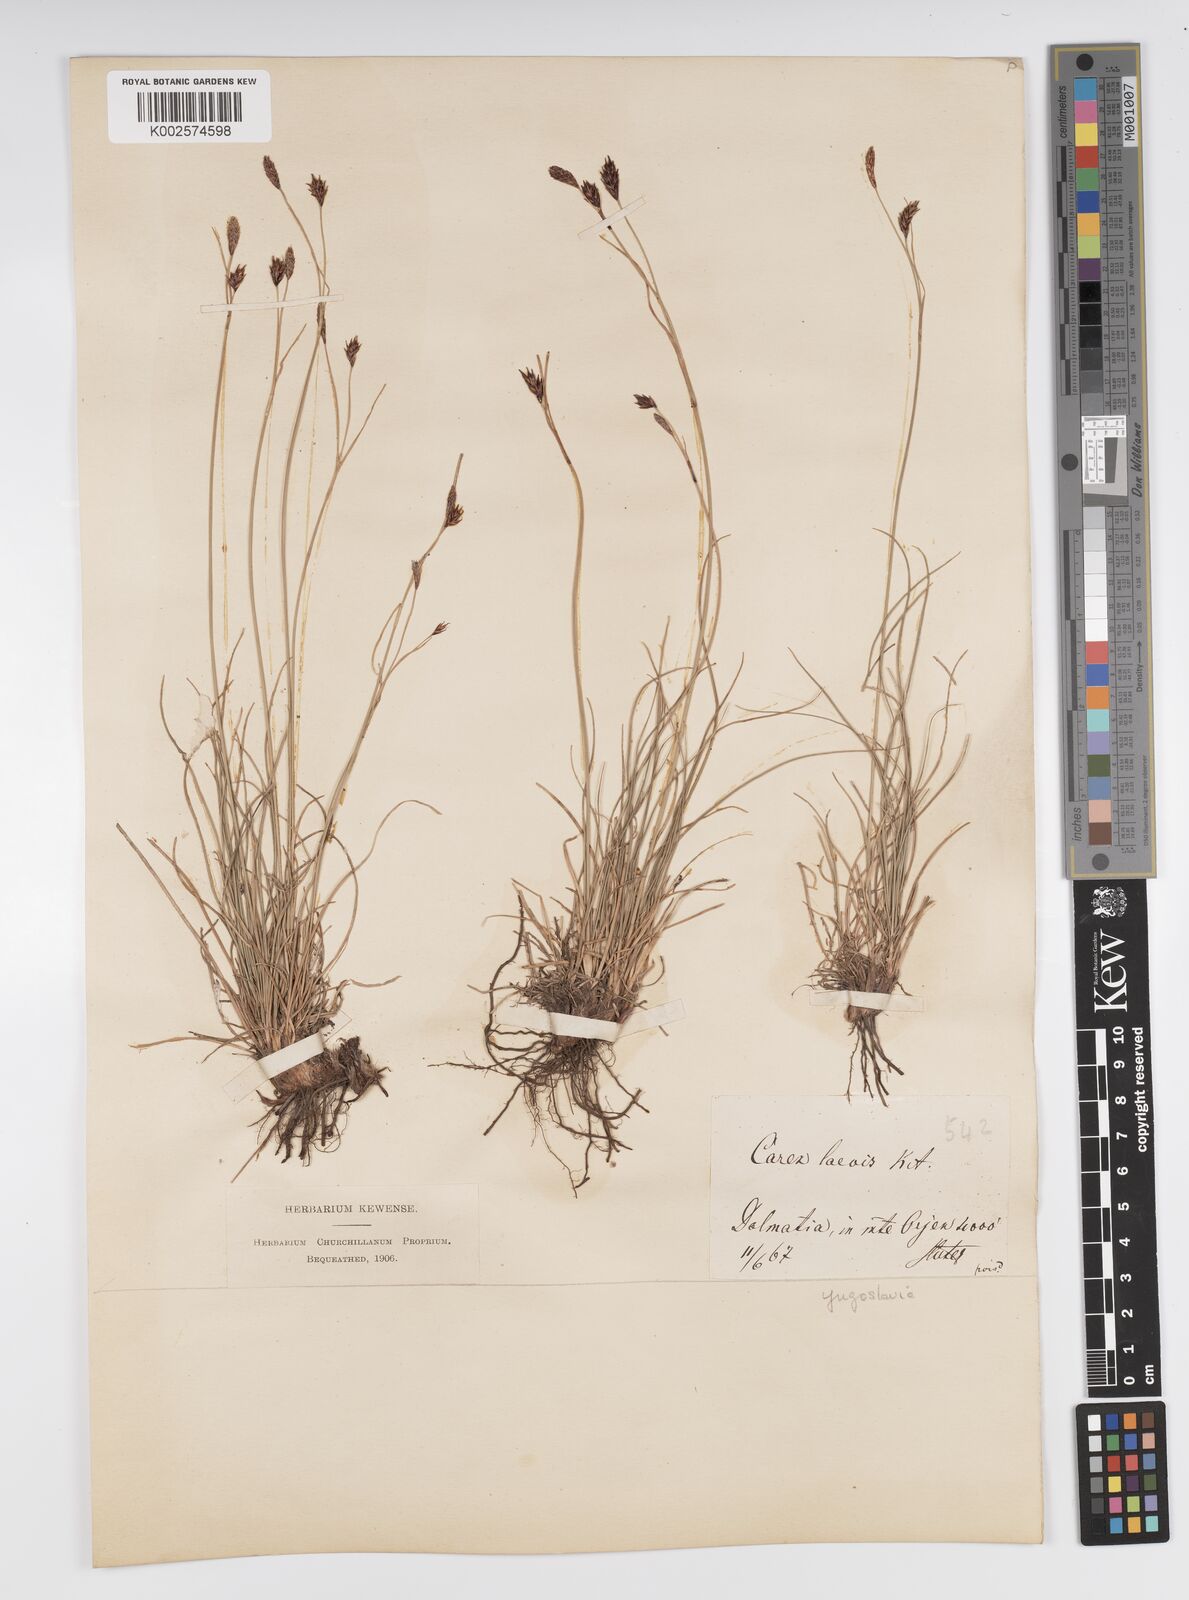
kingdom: Plantae
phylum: Tracheophyta
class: Liliopsida
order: Poales
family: Cyperaceae
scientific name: Cyperaceae
